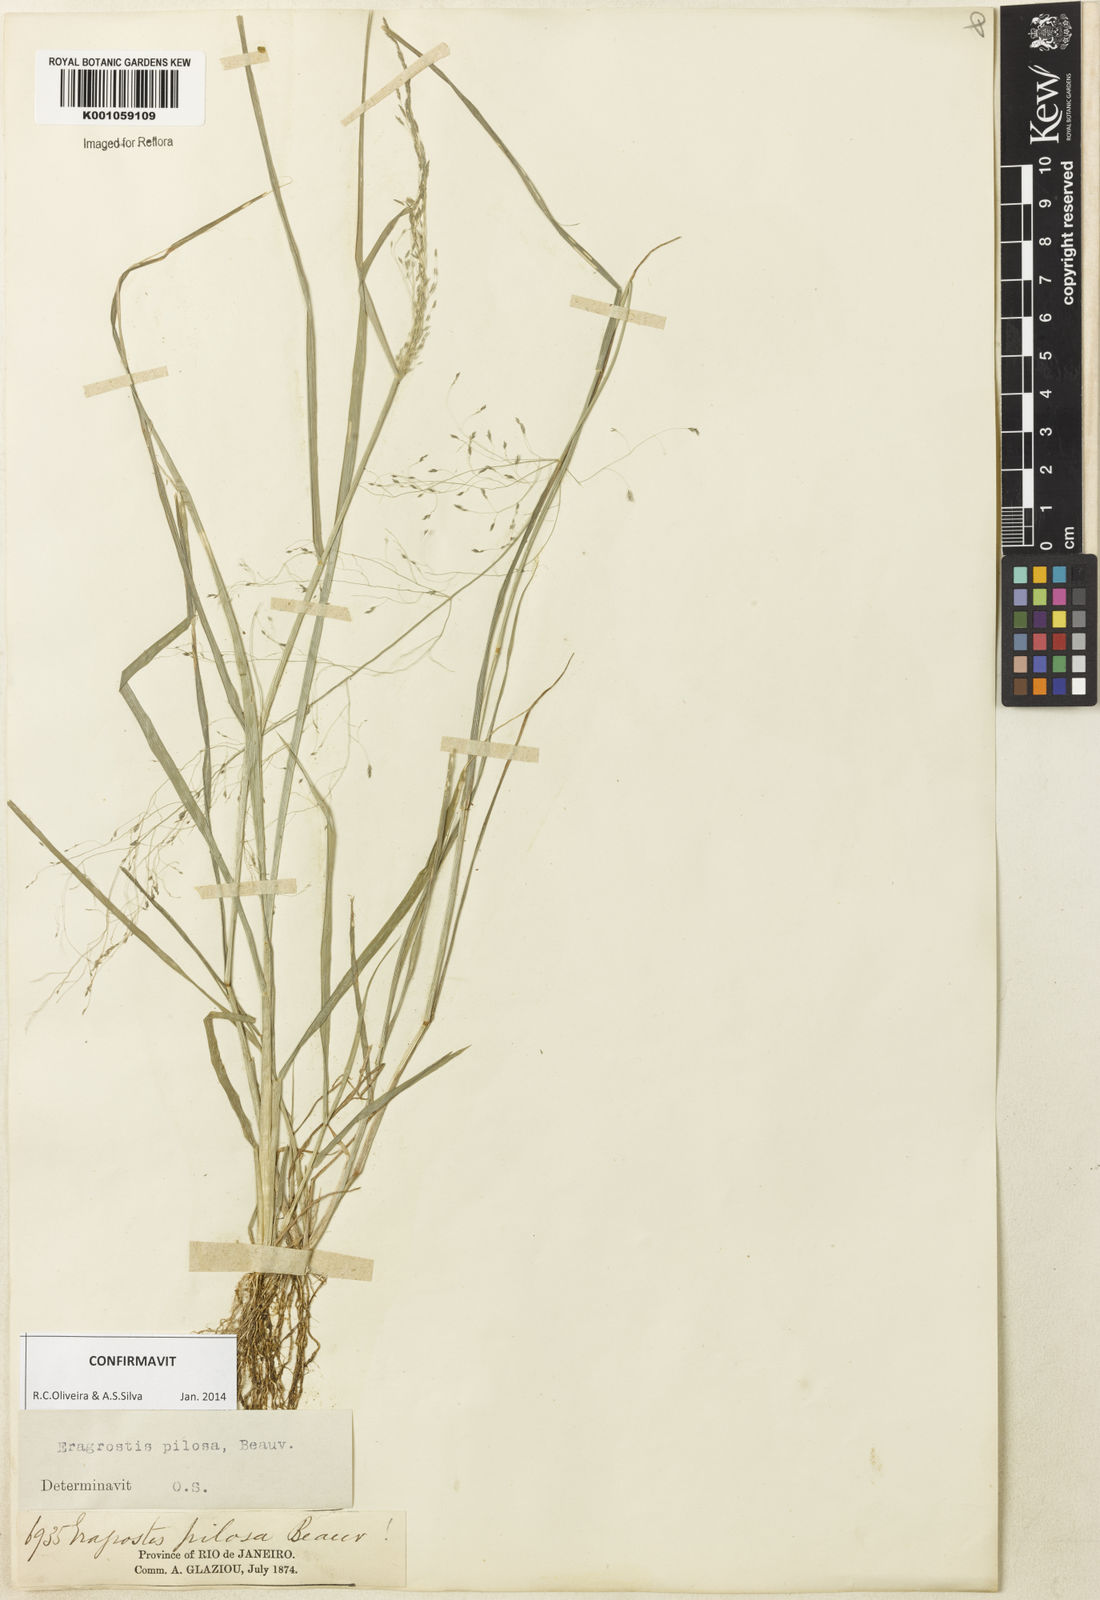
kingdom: Plantae
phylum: Tracheophyta
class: Liliopsida
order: Poales
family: Poaceae
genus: Eragrostis
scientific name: Eragrostis pilosa
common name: Indian lovegrass
